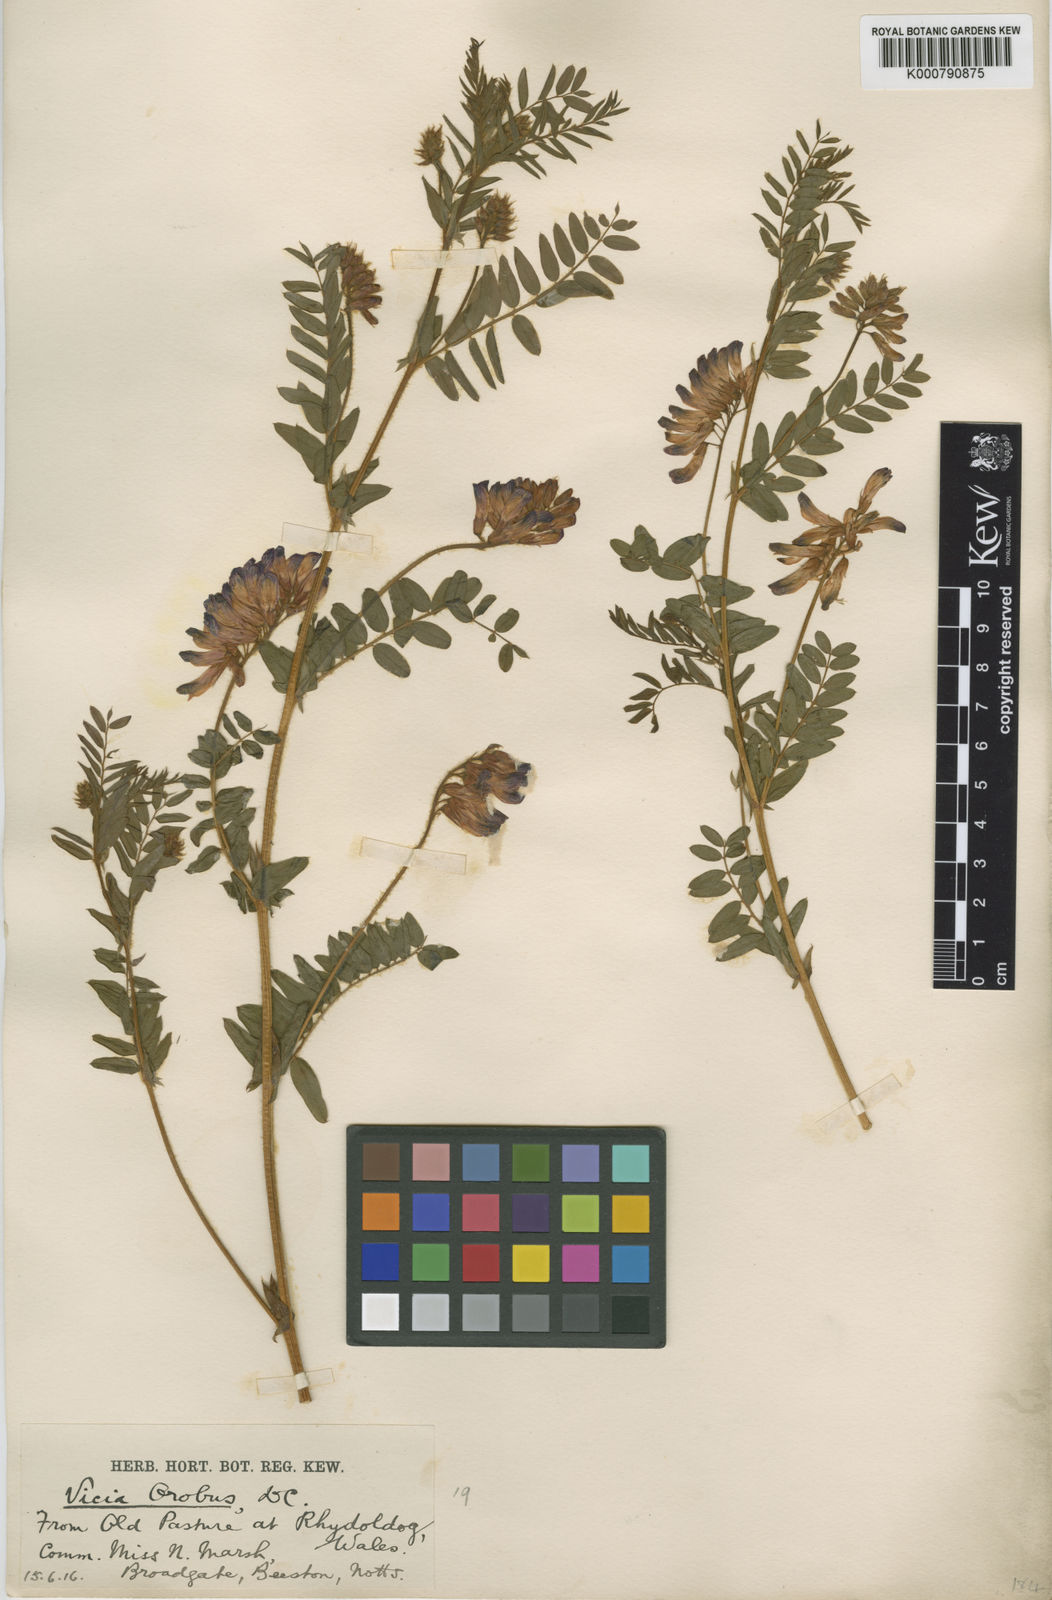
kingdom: Plantae
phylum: Tracheophyta
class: Magnoliopsida
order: Fabales
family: Fabaceae
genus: Vicia
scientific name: Vicia orobus
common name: Wood bitter-vetch
